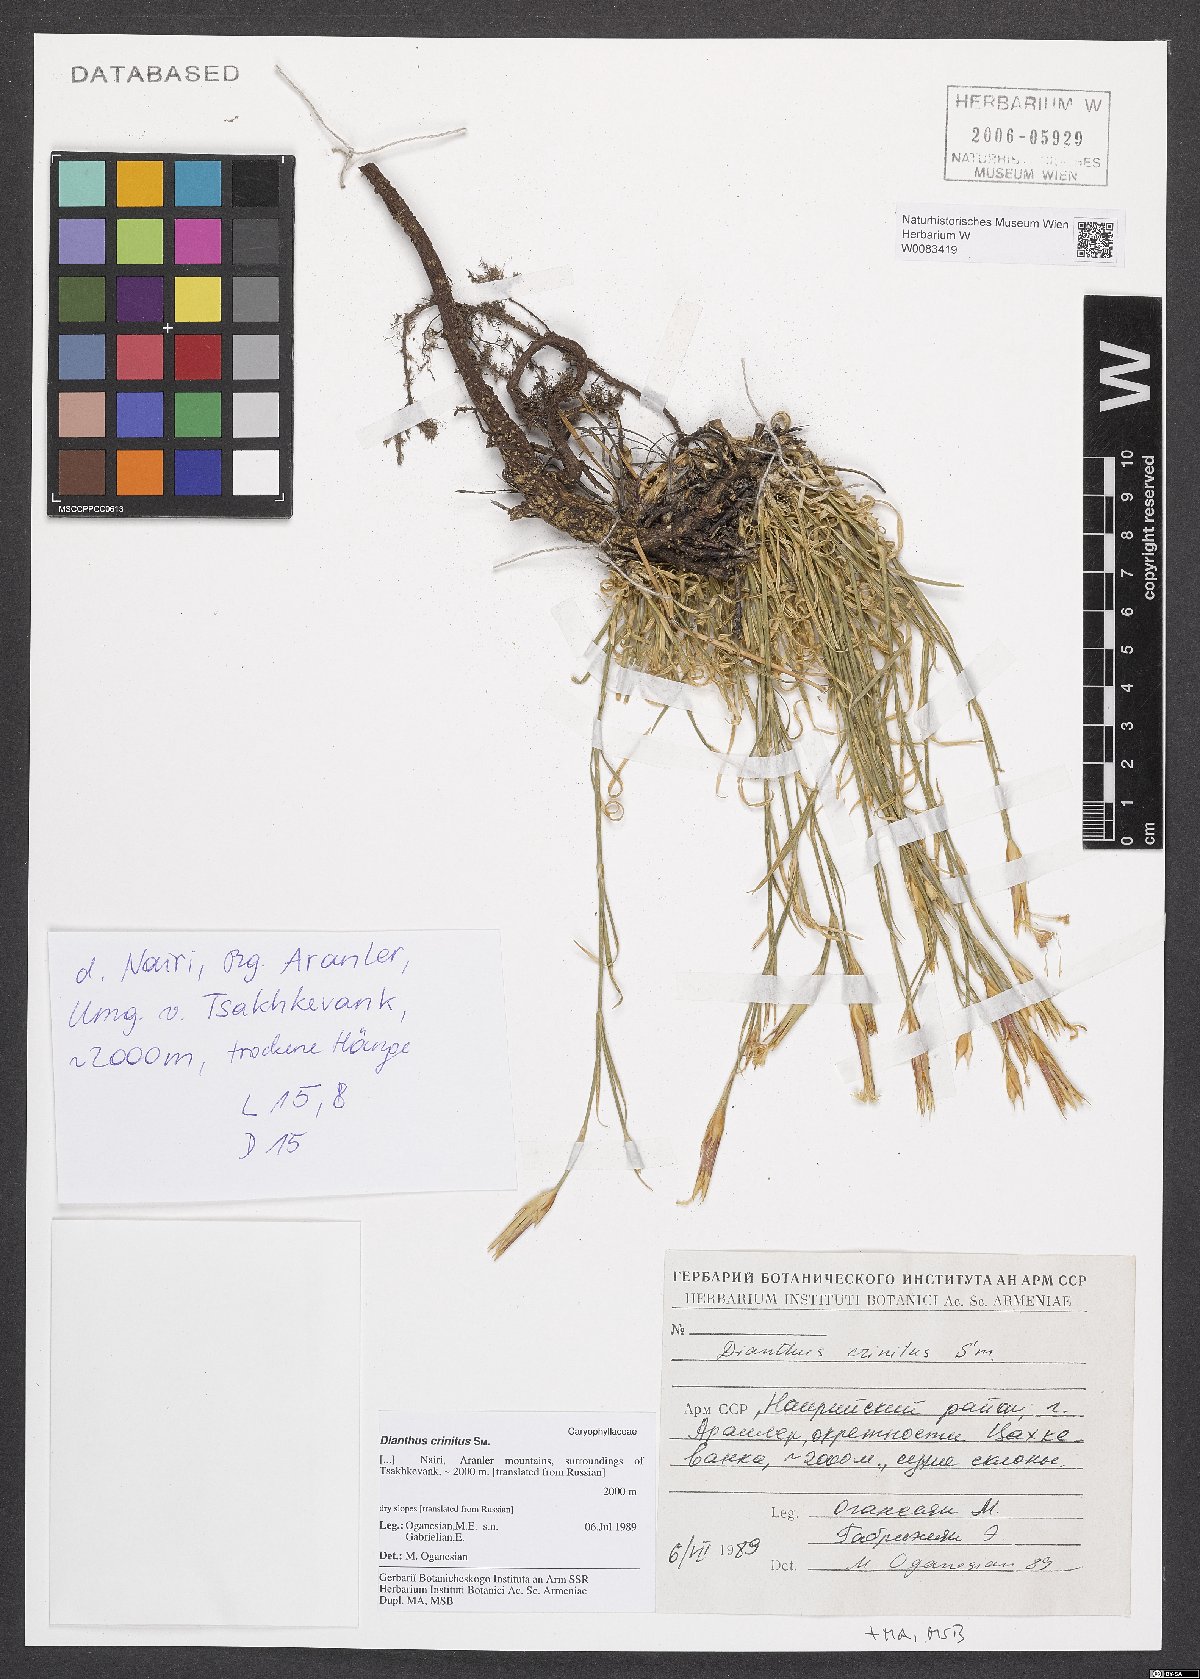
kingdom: Plantae
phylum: Tracheophyta
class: Magnoliopsida
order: Caryophyllales
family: Caryophyllaceae
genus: Dianthus
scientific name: Dianthus crinitus
